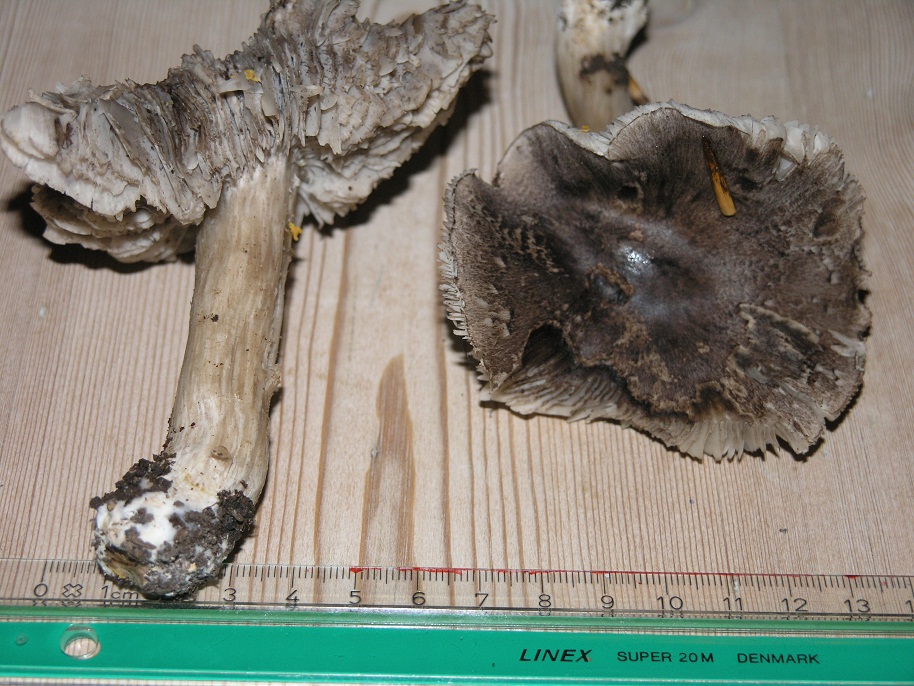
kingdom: Fungi
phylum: Basidiomycota
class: Agaricomycetes
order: Agaricales
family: Tricholomataceae
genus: Tricholoma
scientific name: Tricholoma sciodes
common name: stribet ridderhat
